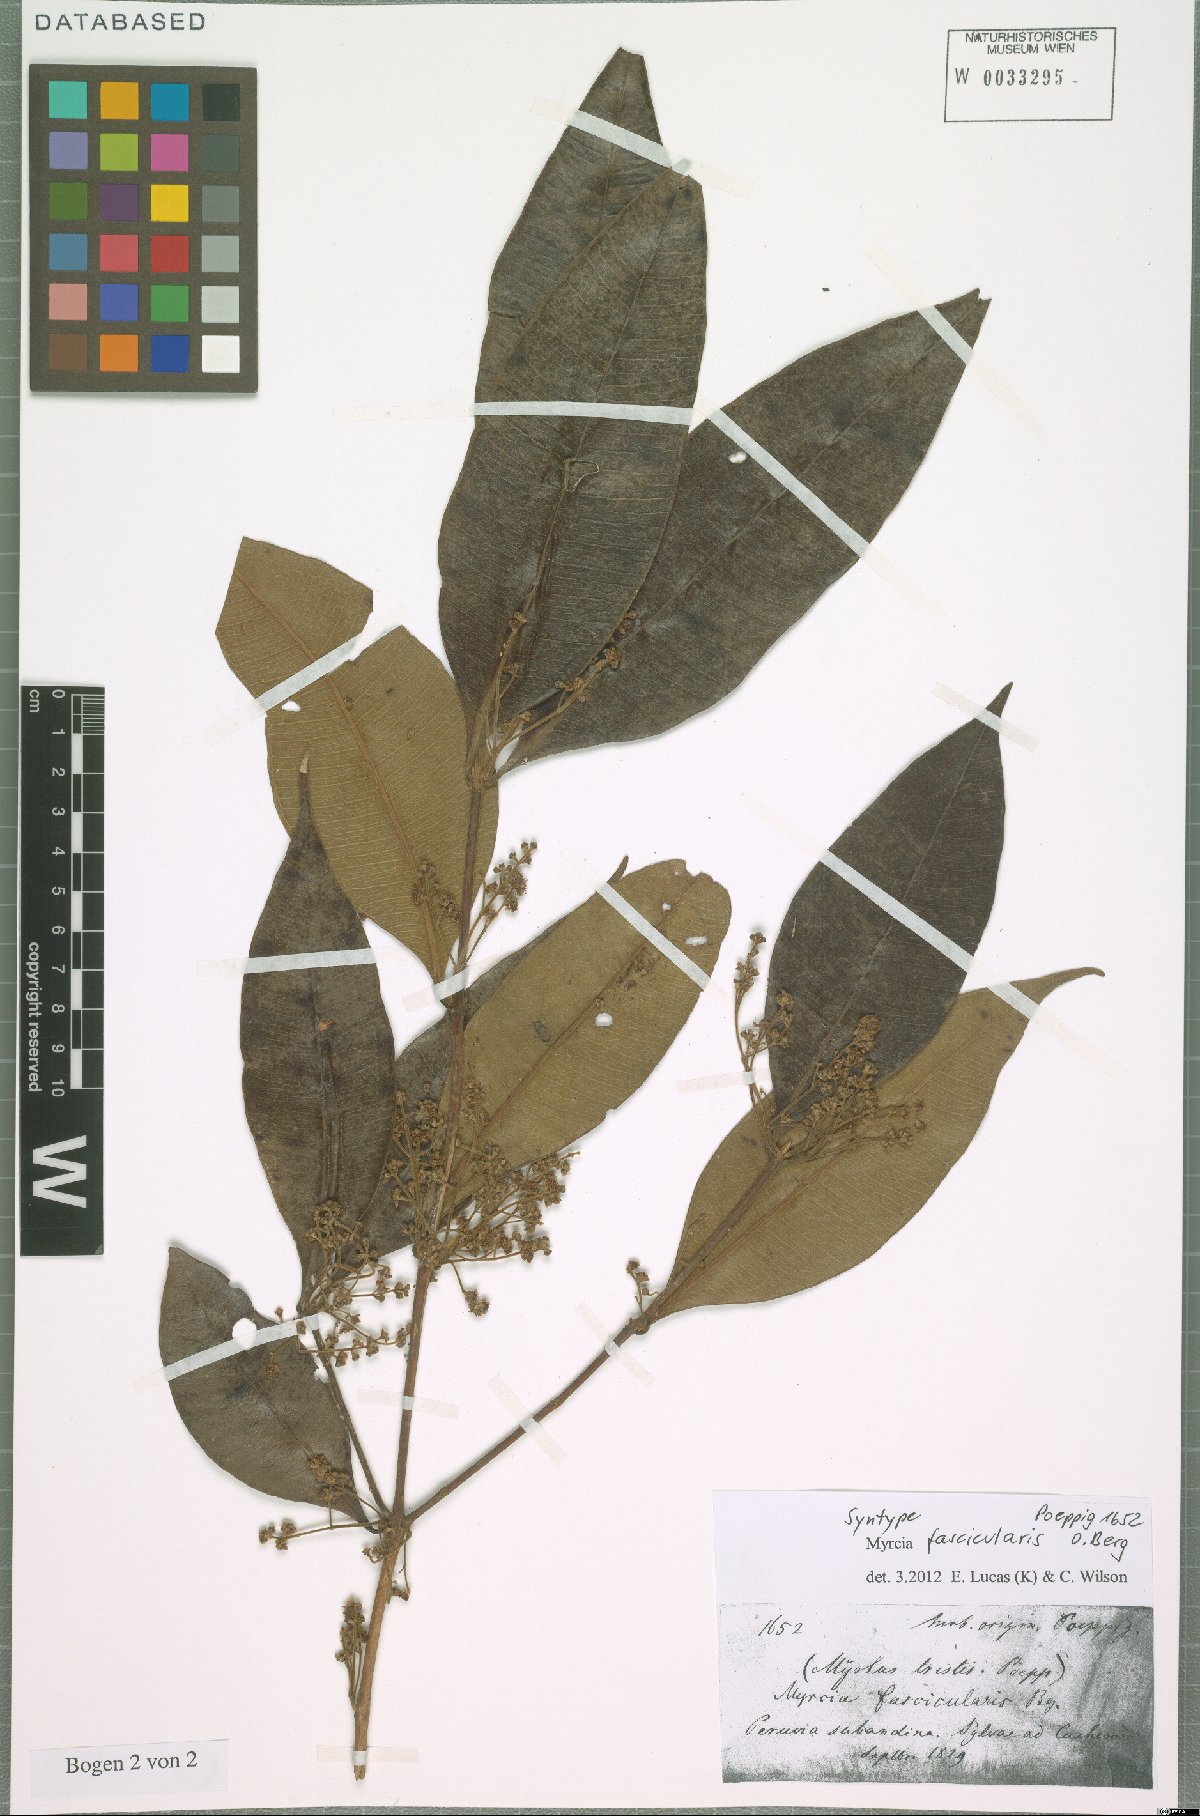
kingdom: Plantae
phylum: Tracheophyta
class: Magnoliopsida
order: Myrtales
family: Myrtaceae
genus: Myrcia
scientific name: Myrcia fascicularis
